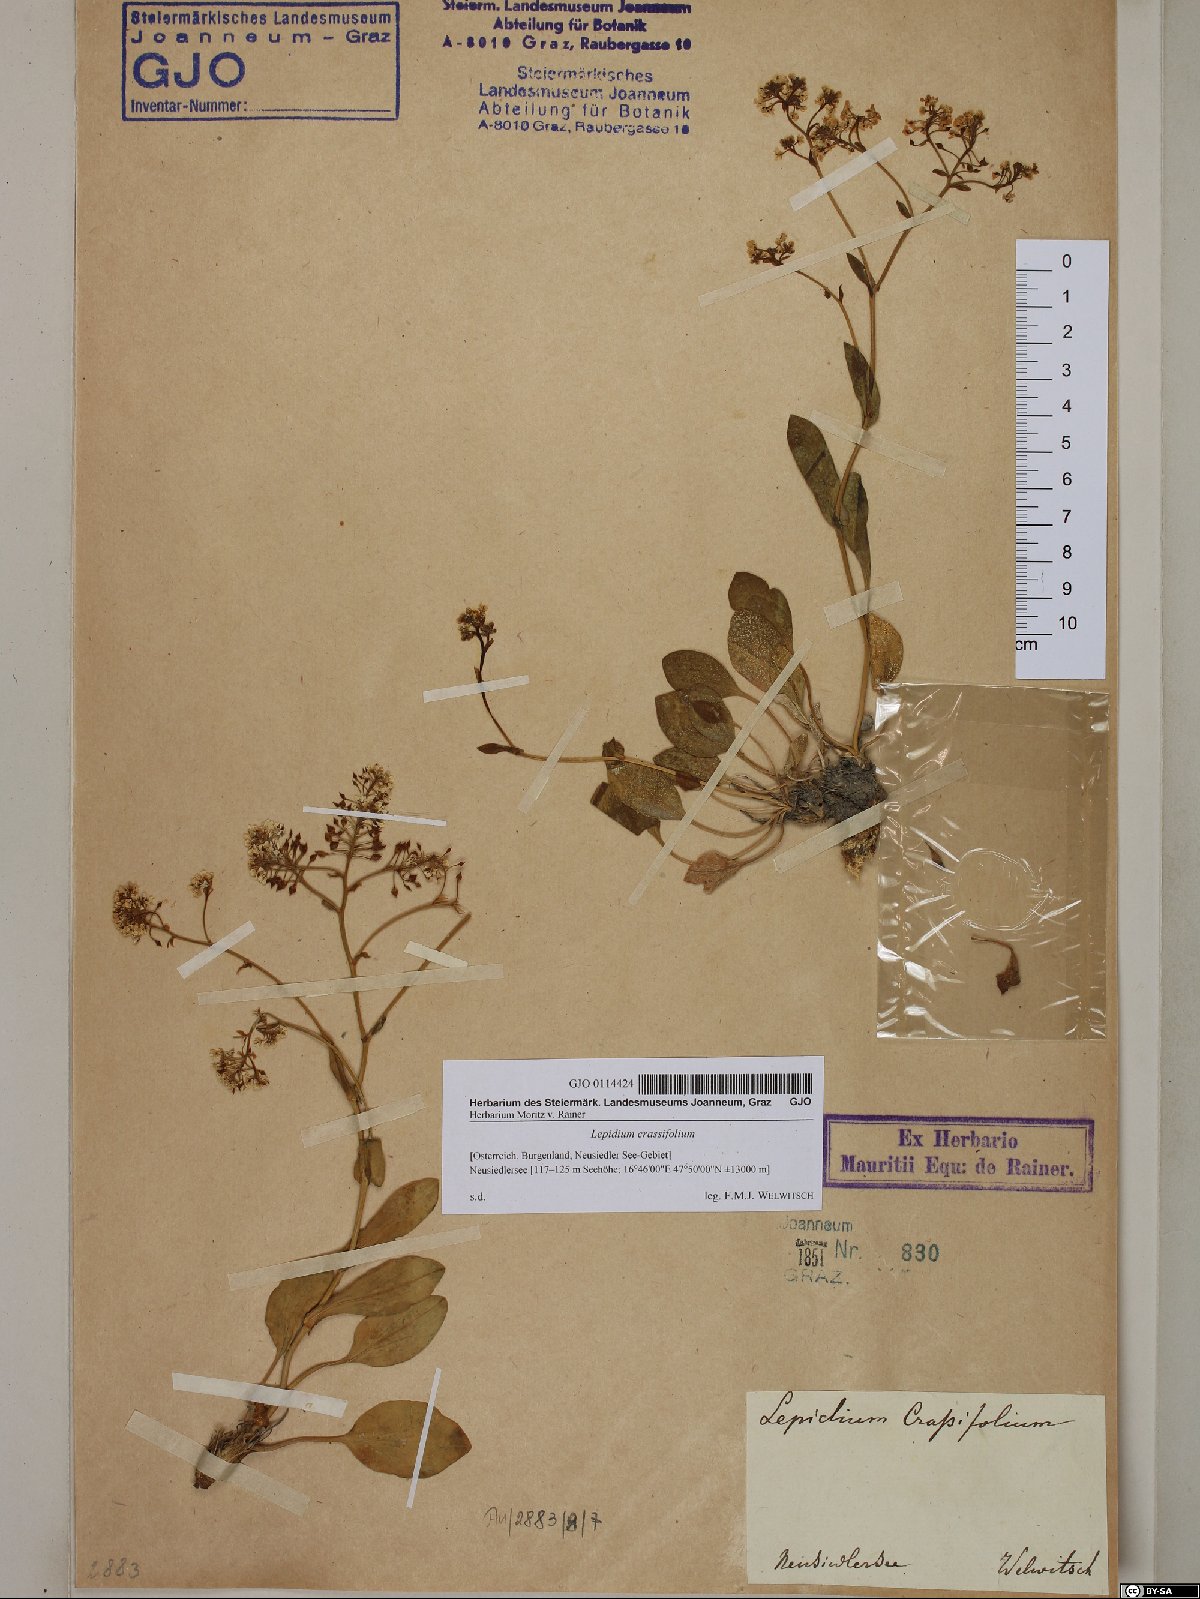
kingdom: Plantae
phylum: Tracheophyta
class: Magnoliopsida
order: Brassicales
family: Brassicaceae
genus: Lepidium
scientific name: Lepidium cartilagineum
